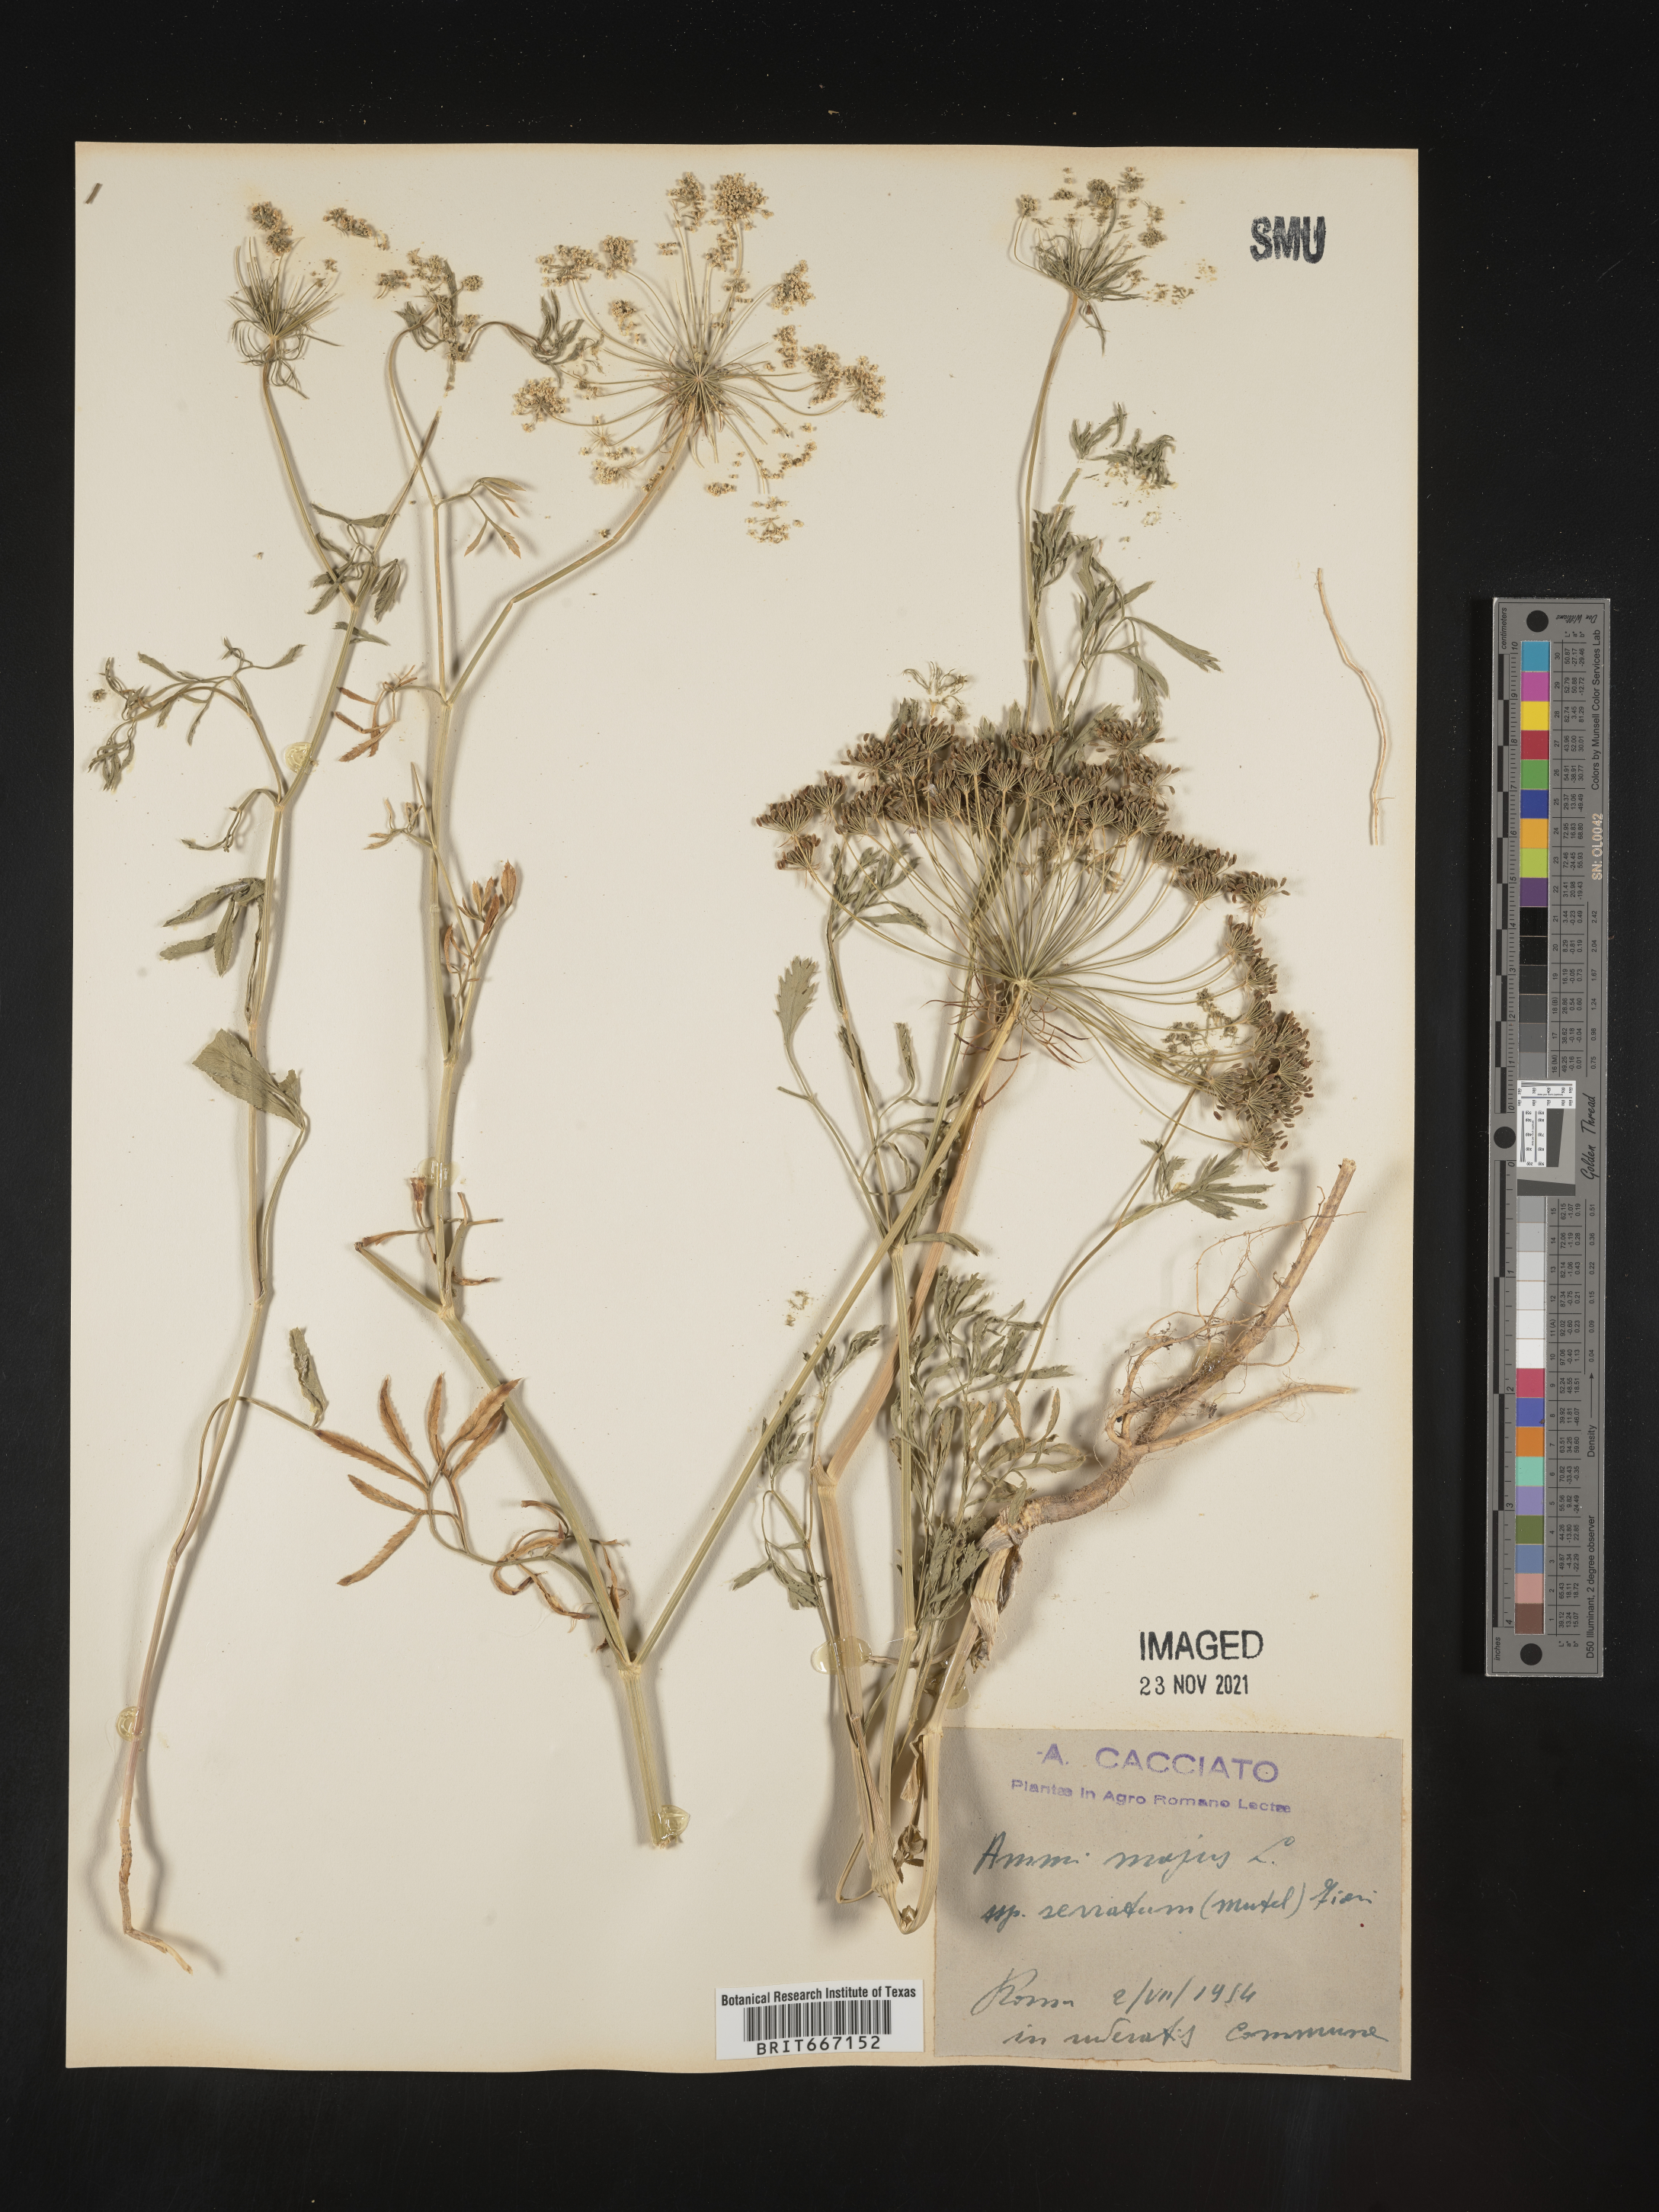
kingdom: Plantae
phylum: Tracheophyta
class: Magnoliopsida
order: Apiales
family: Apiaceae
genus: Ammi
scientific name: Ammi
